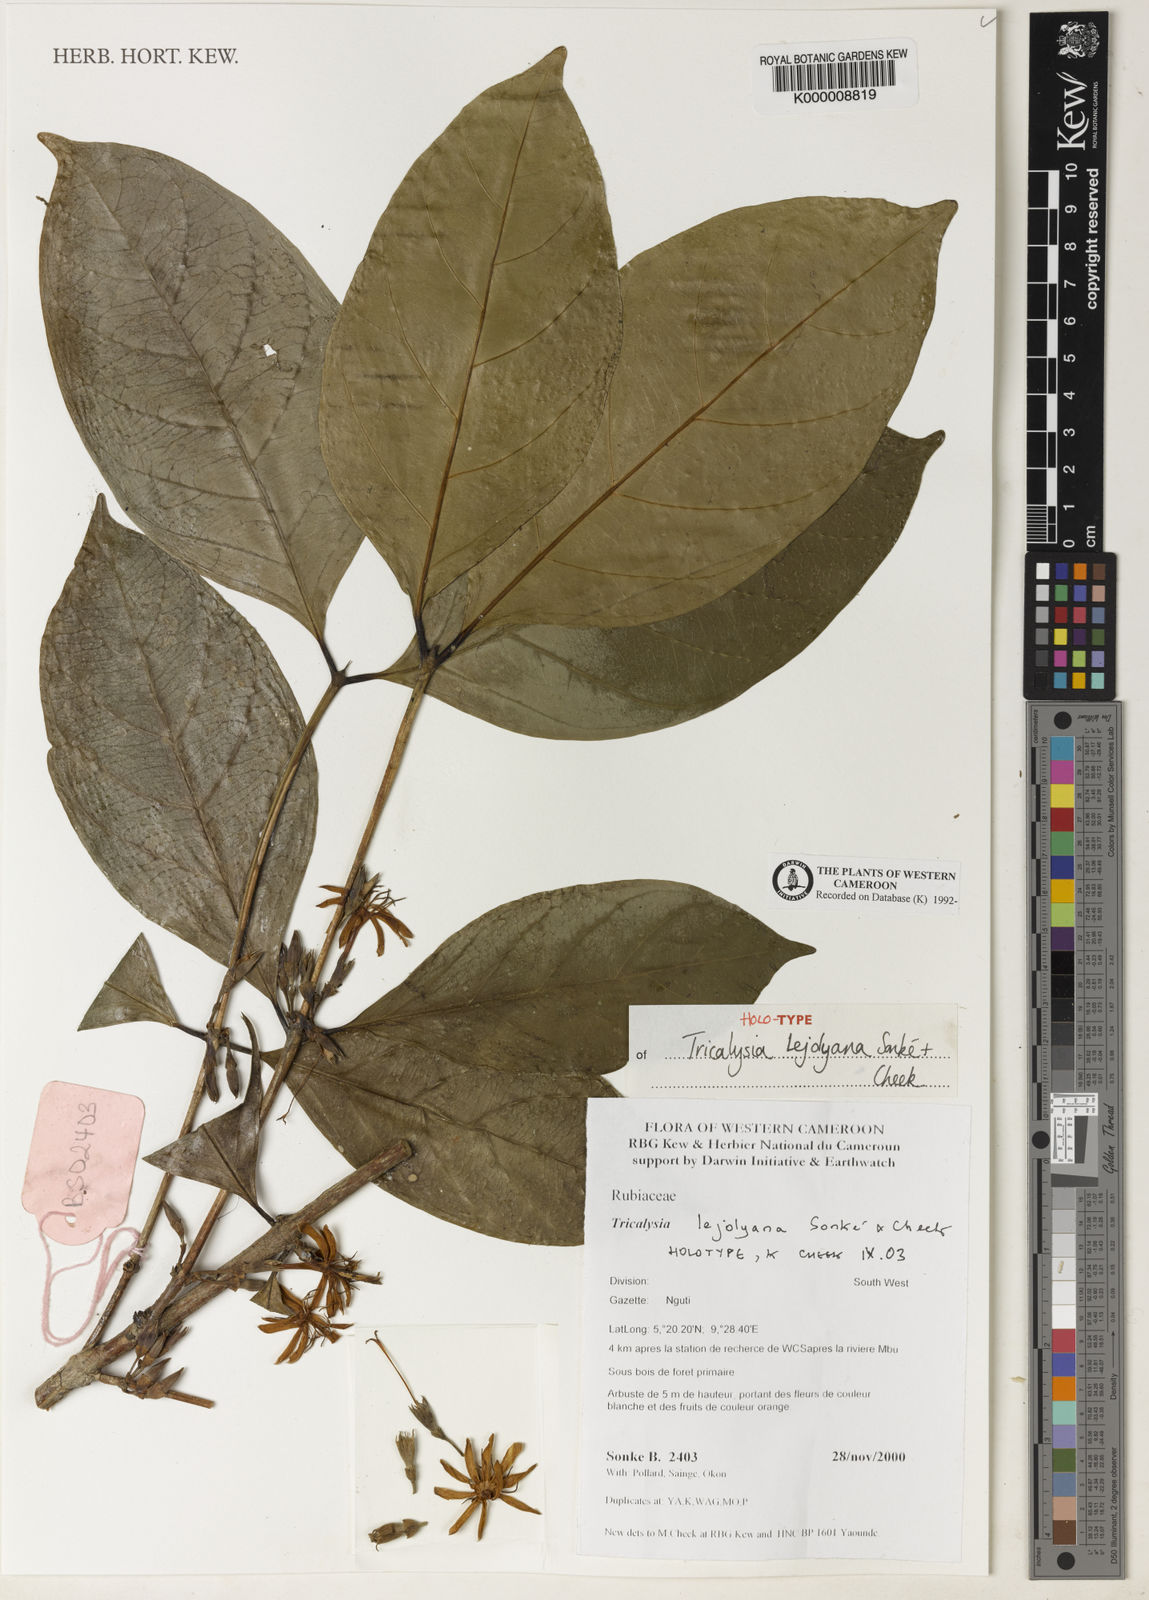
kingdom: Plantae
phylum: Tracheophyta
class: Magnoliopsida
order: Gentianales
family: Rubiaceae
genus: Tricalysia
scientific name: Tricalysia
